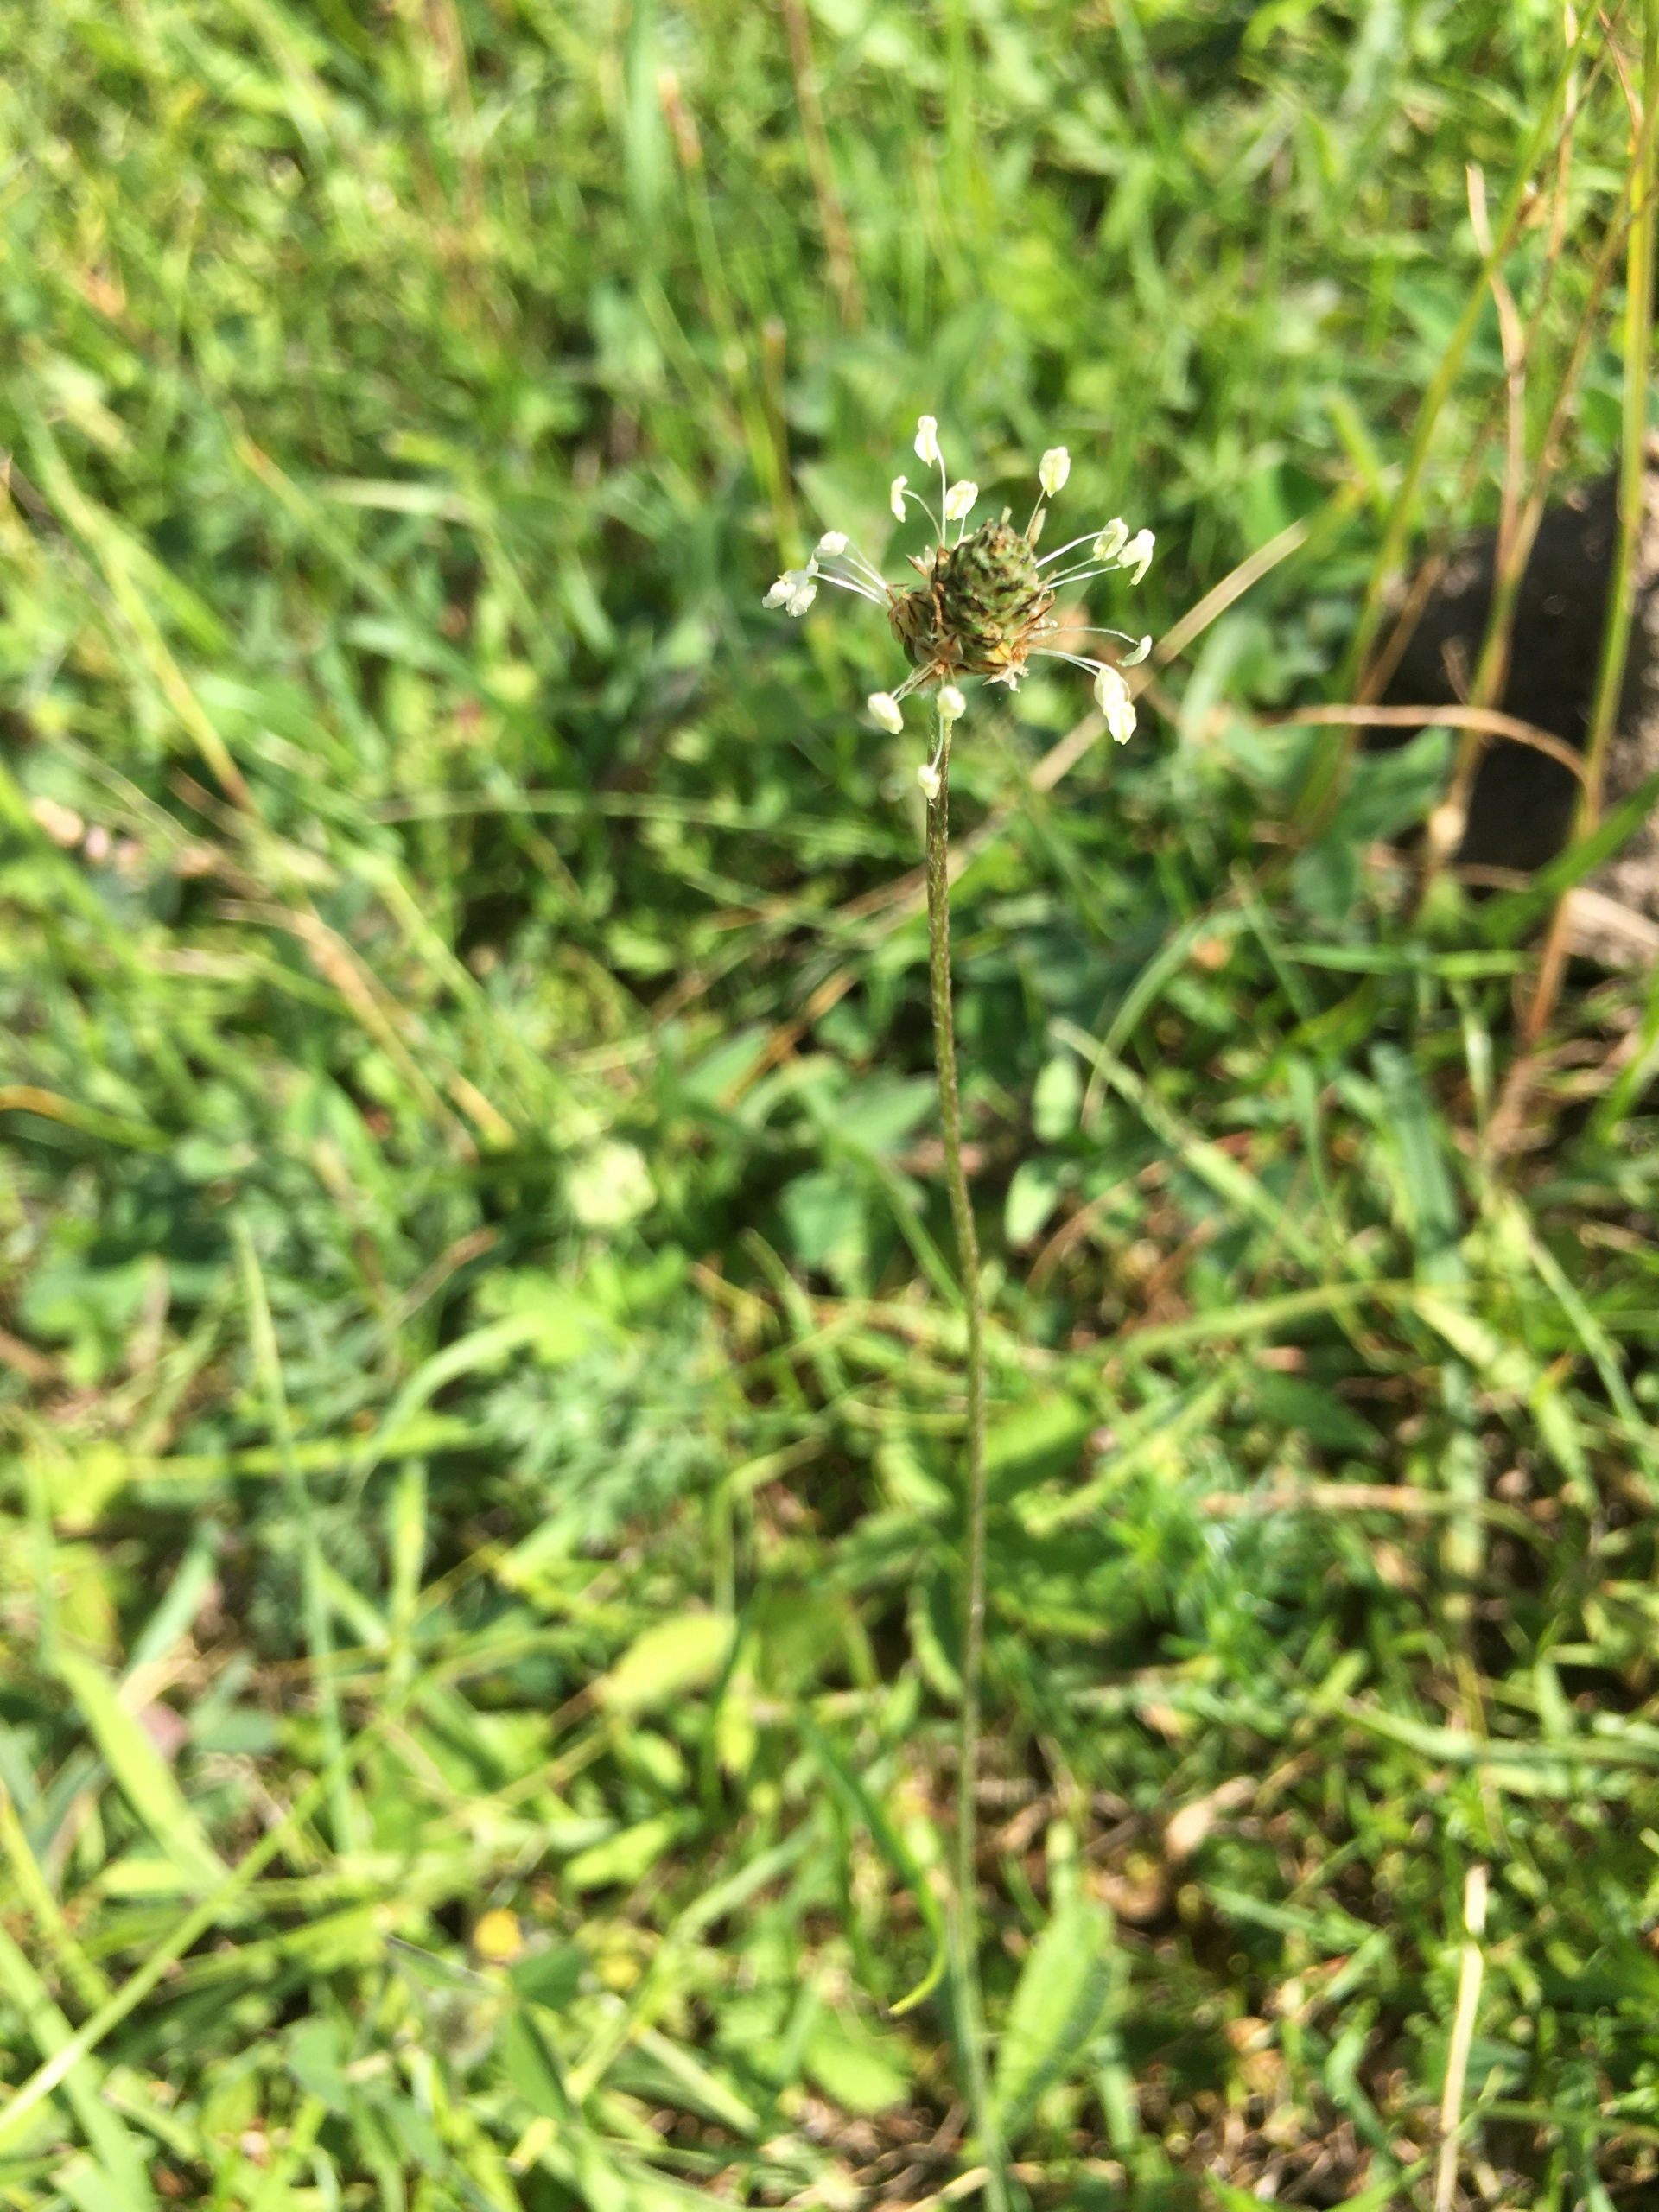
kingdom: Plantae
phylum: Tracheophyta
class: Magnoliopsida
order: Lamiales
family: Plantaginaceae
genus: Plantago
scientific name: Plantago lanceolata
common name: Lancet-vejbred
